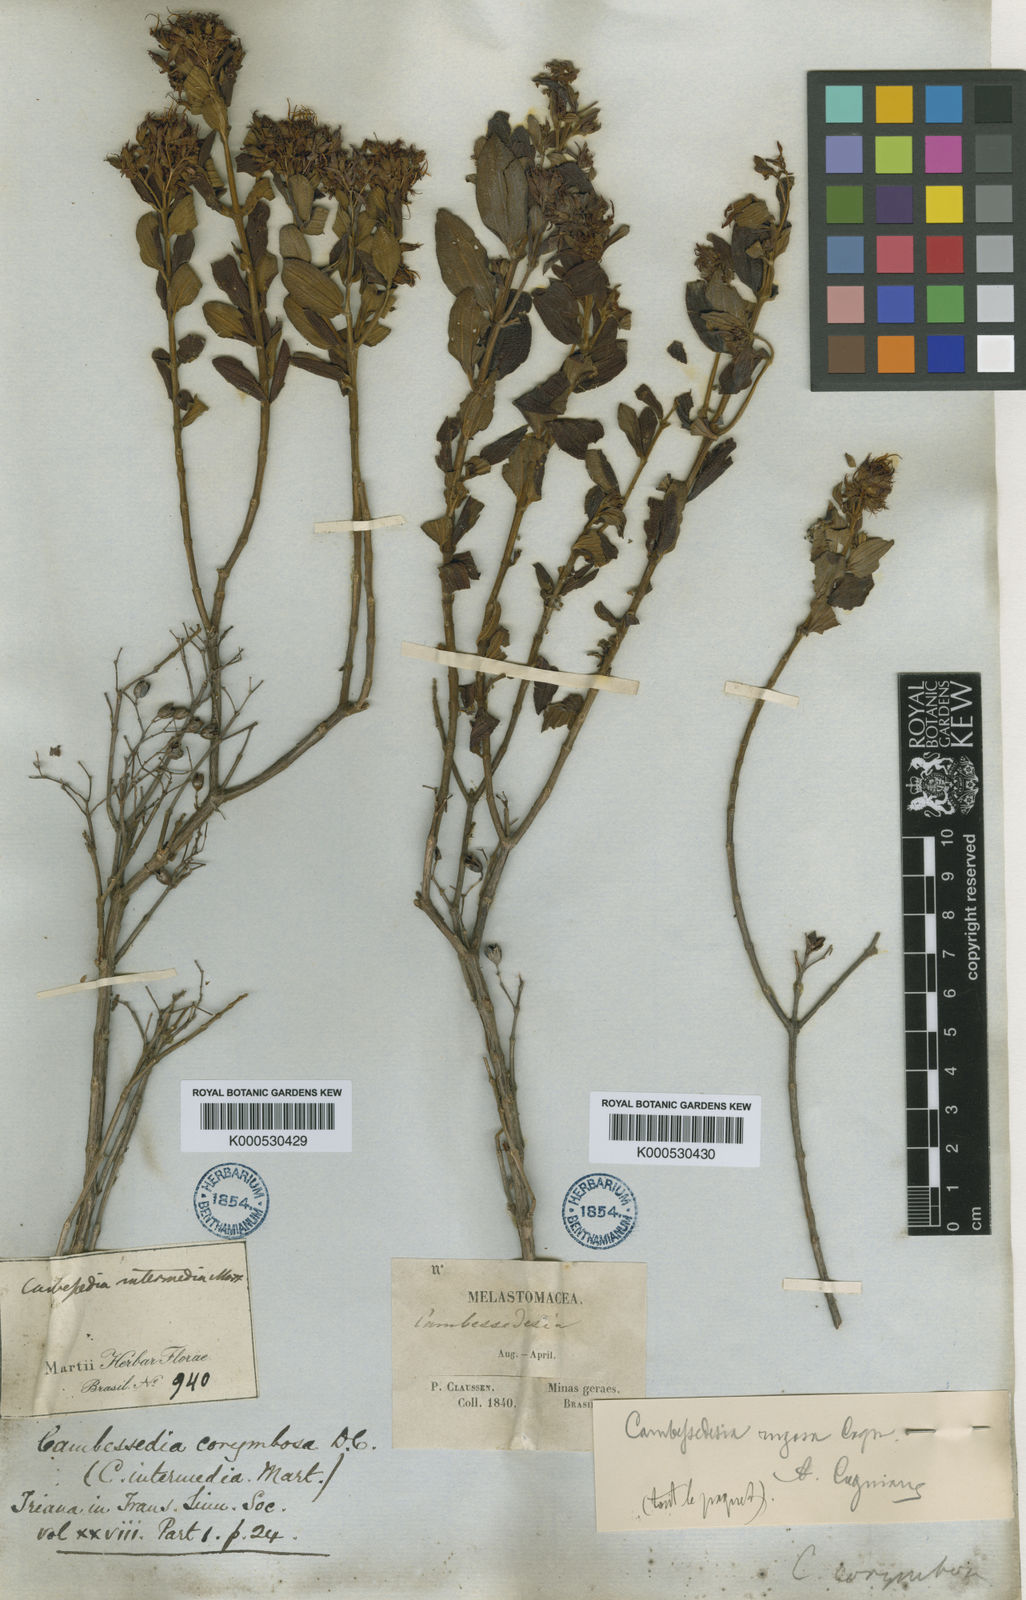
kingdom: Plantae
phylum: Tracheophyta
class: Magnoliopsida
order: Myrtales
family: Melastomataceae
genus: Cambessedesia
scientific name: Cambessedesia corymbosa
